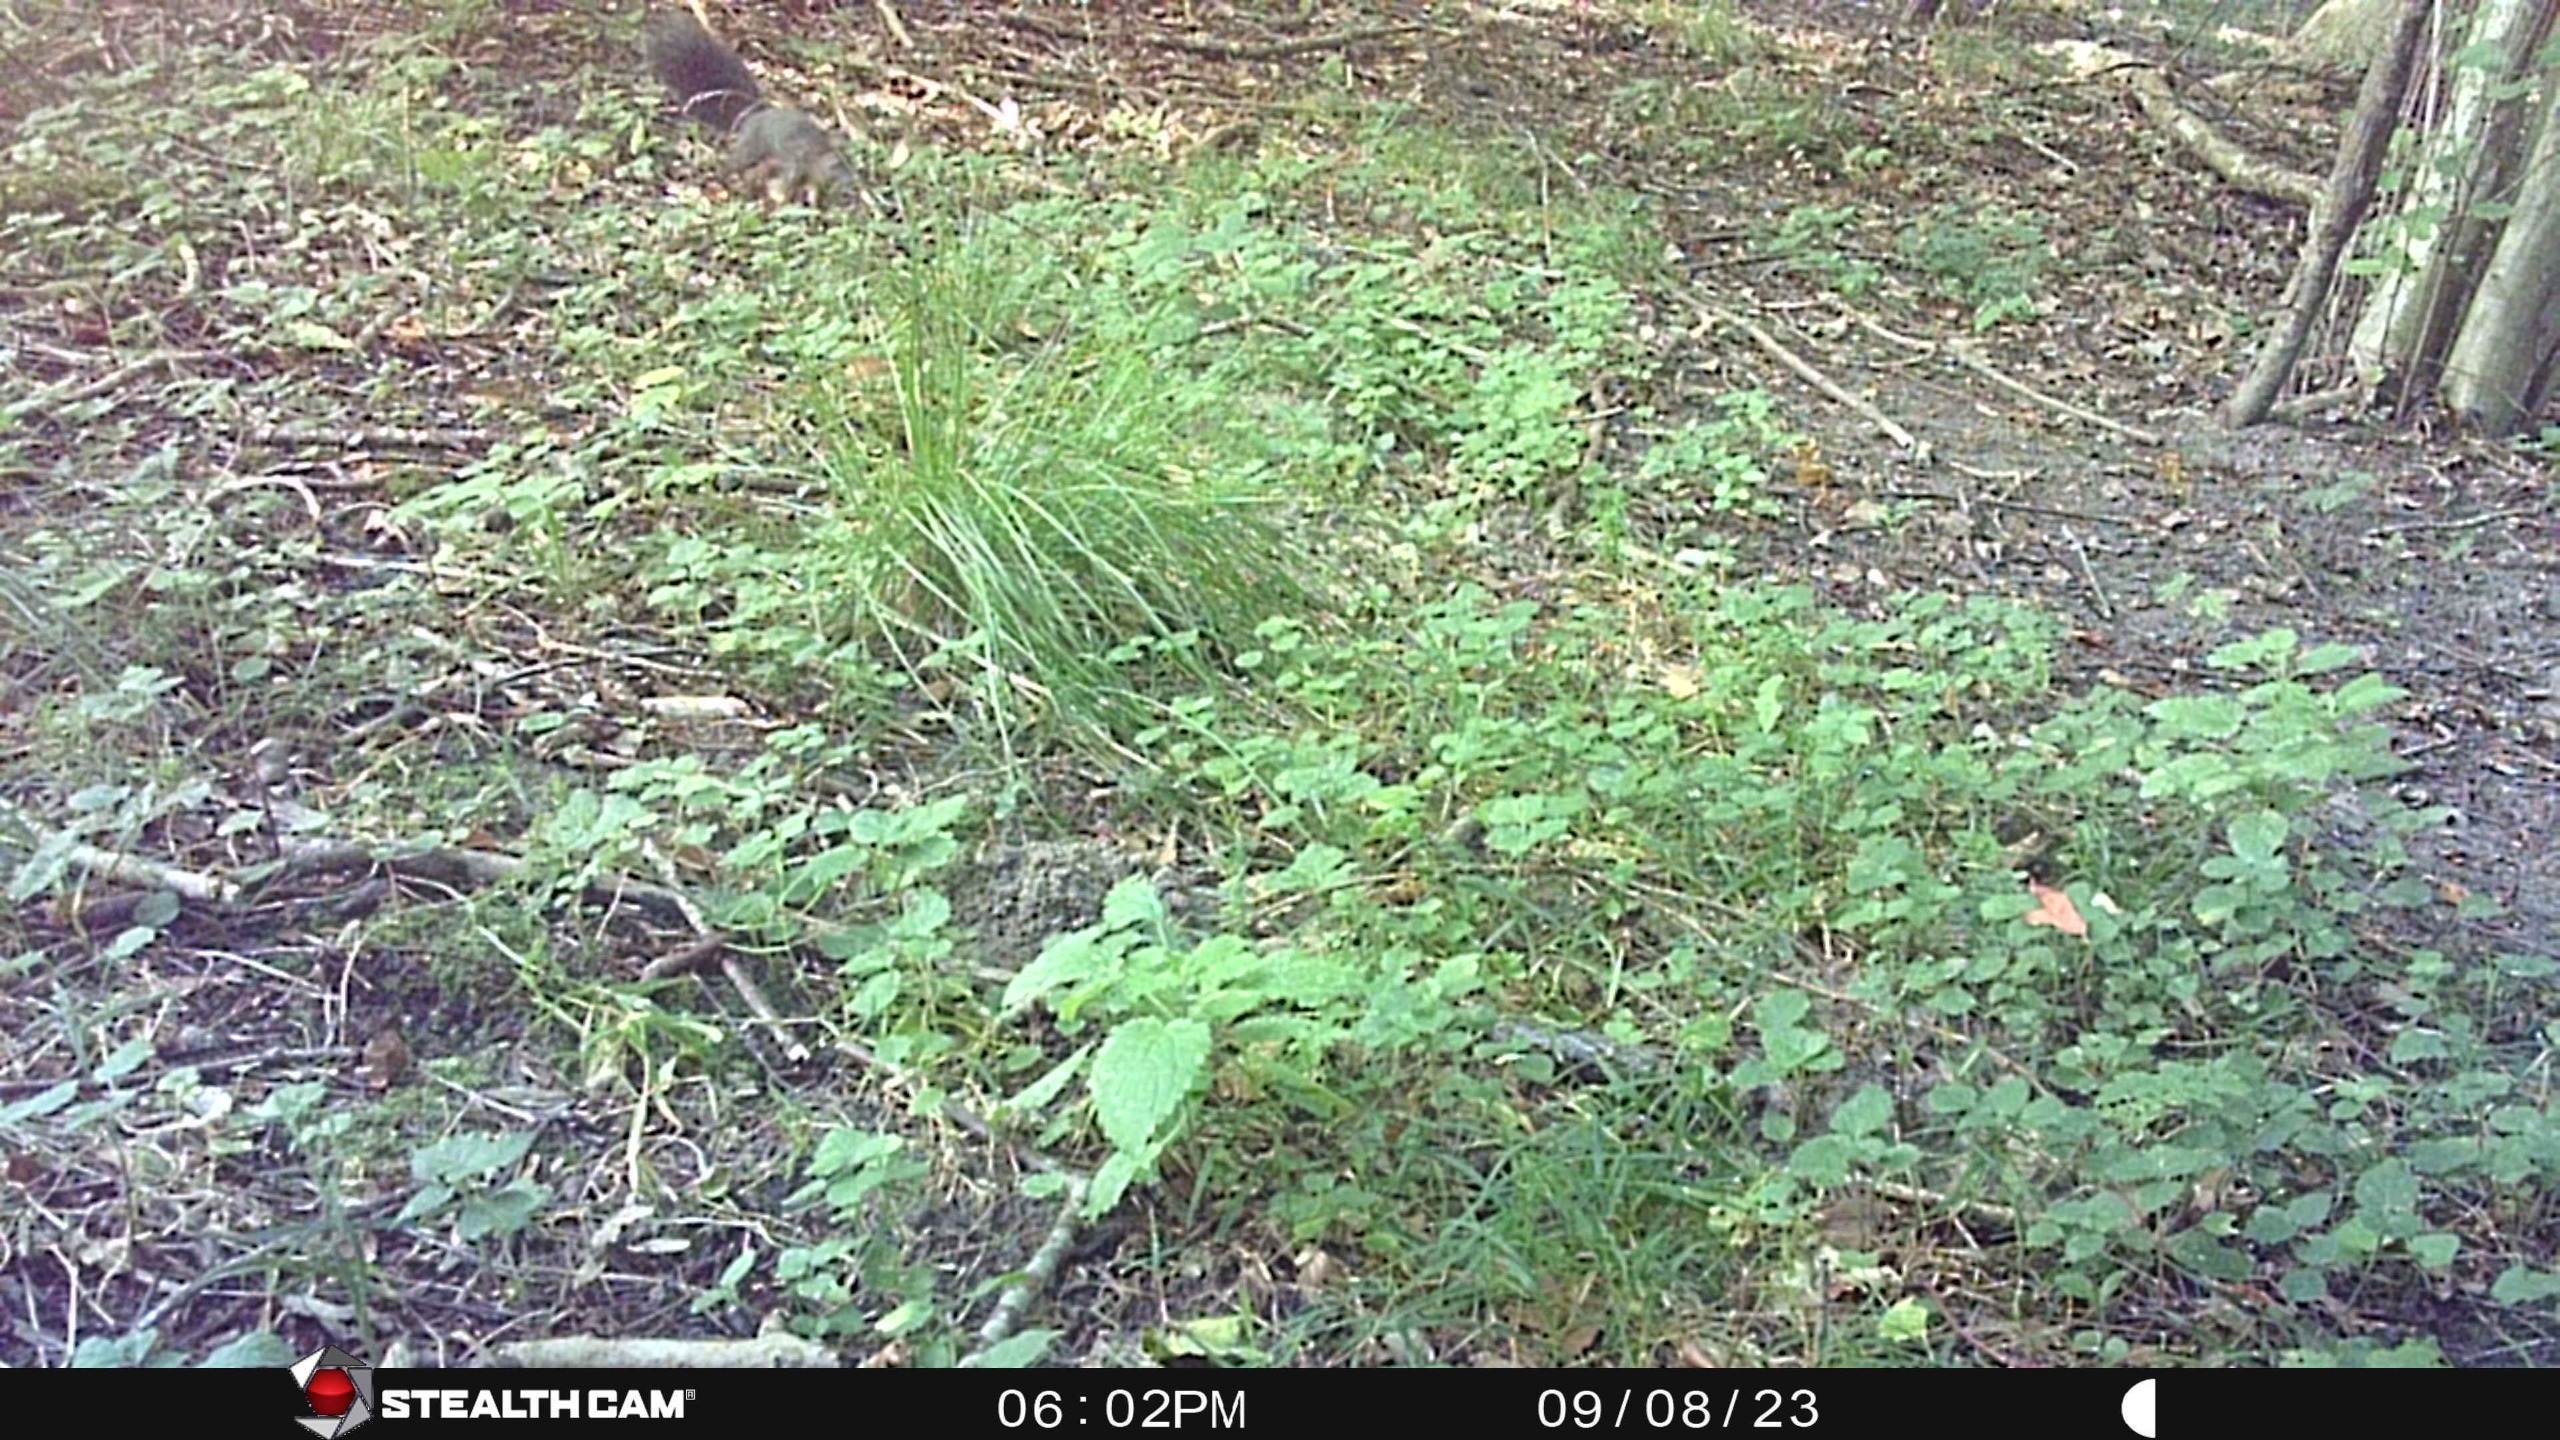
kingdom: Animalia
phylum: Chordata
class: Mammalia
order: Rodentia
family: Sciuridae
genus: Sciurus
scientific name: Sciurus vulgaris
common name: Egern
